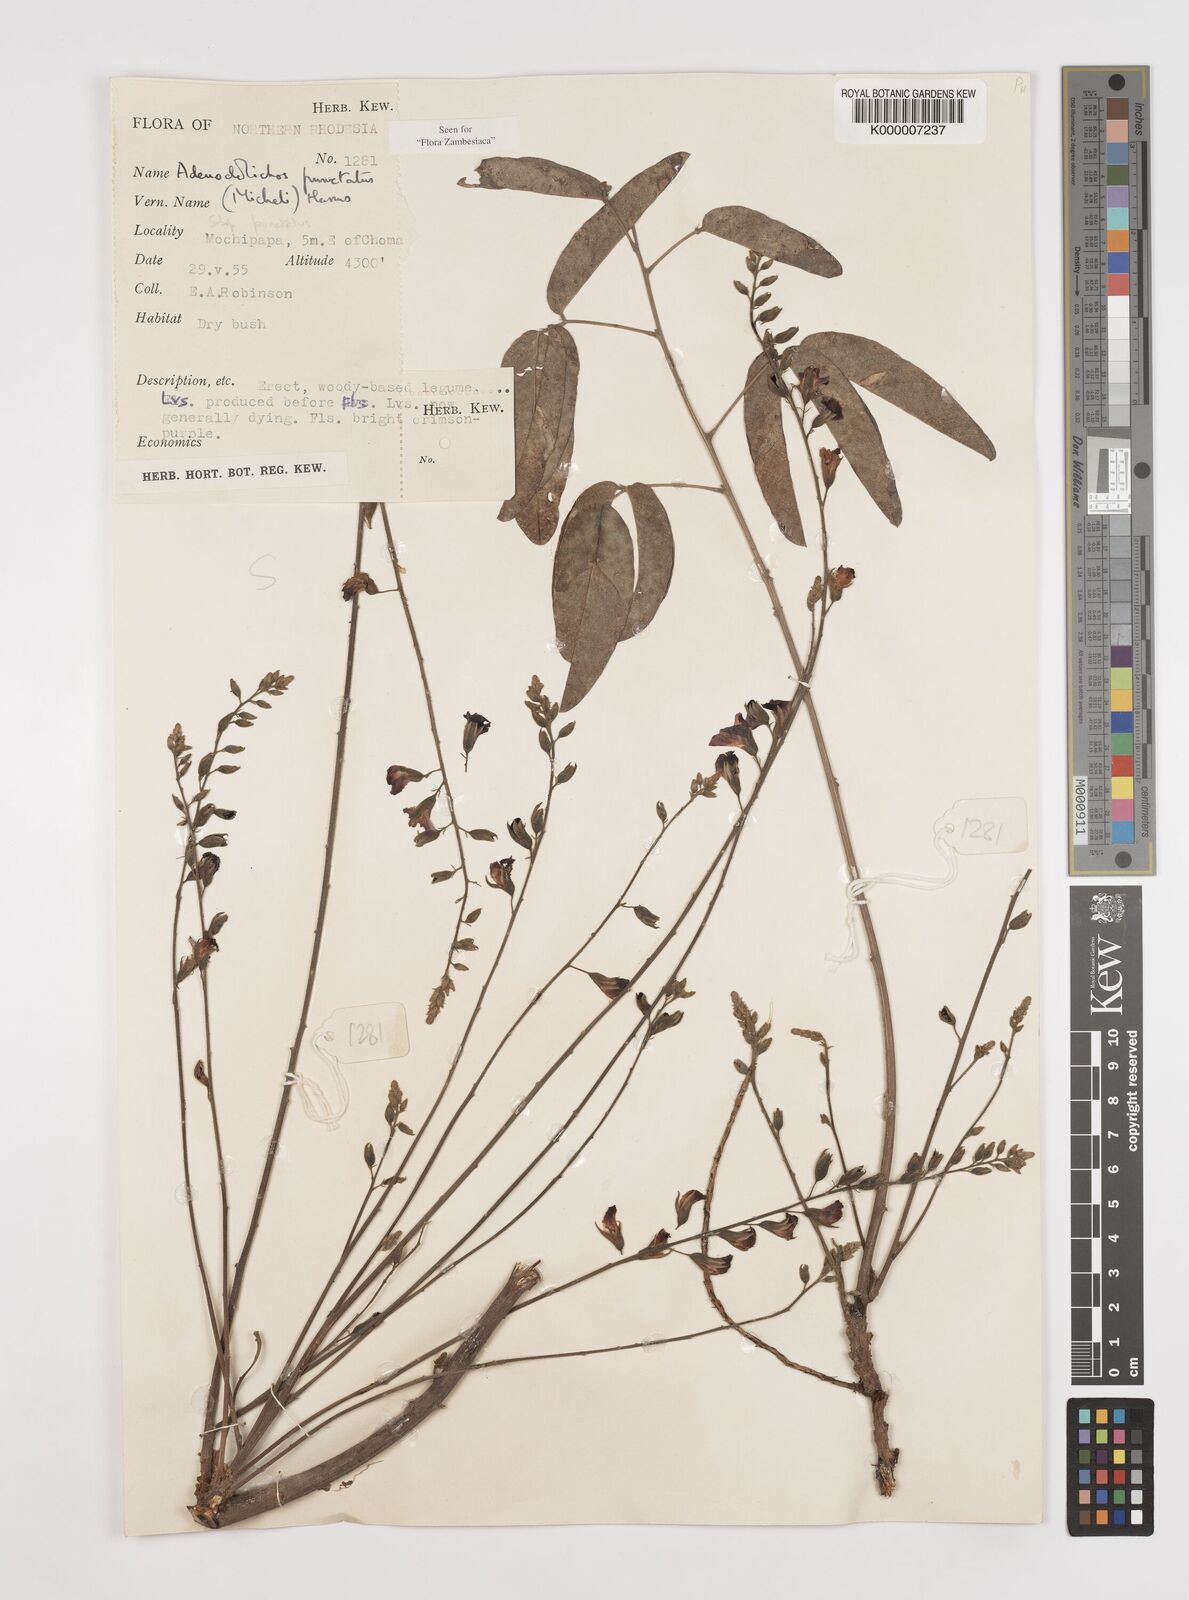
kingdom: Plantae
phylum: Tracheophyta
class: Magnoliopsida
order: Fabales
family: Fabaceae
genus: Adenodolichos
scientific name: Adenodolichos punctatus
